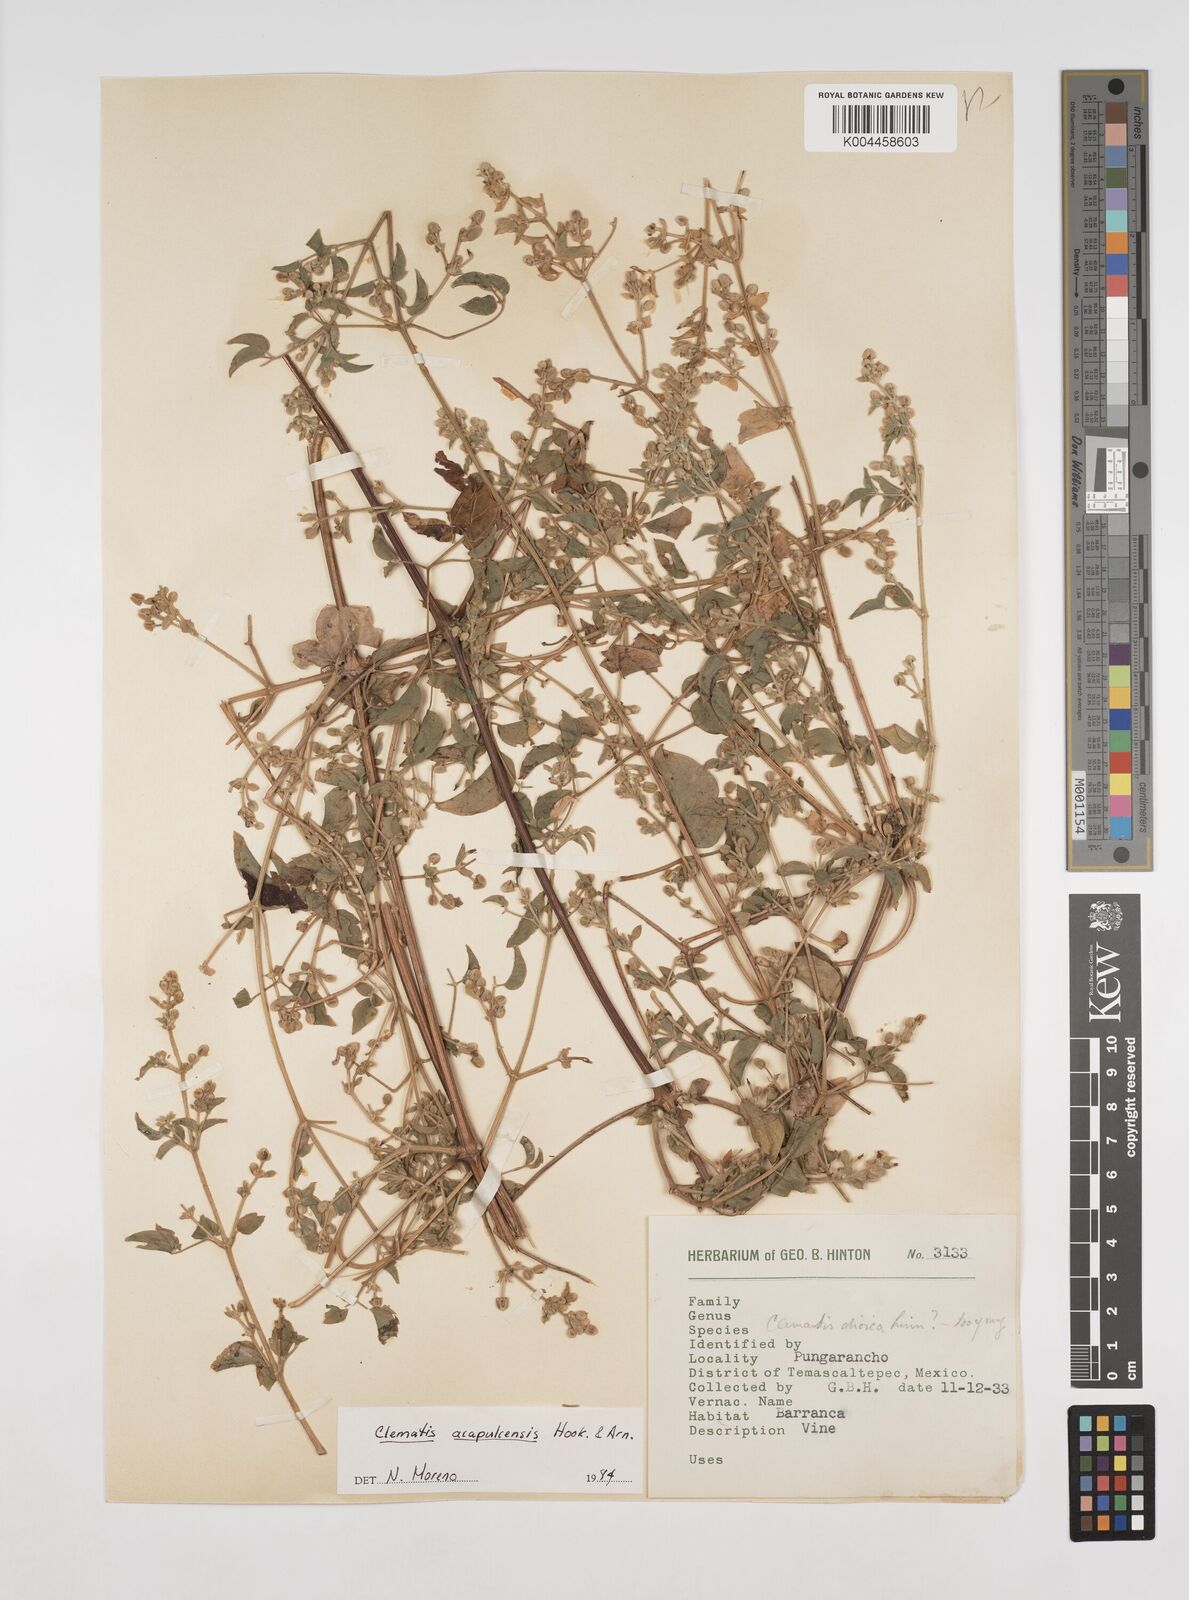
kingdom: Plantae
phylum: Tracheophyta
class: Magnoliopsida
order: Ranunculales
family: Ranunculaceae
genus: Clematis
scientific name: Clematis acapulcensis
